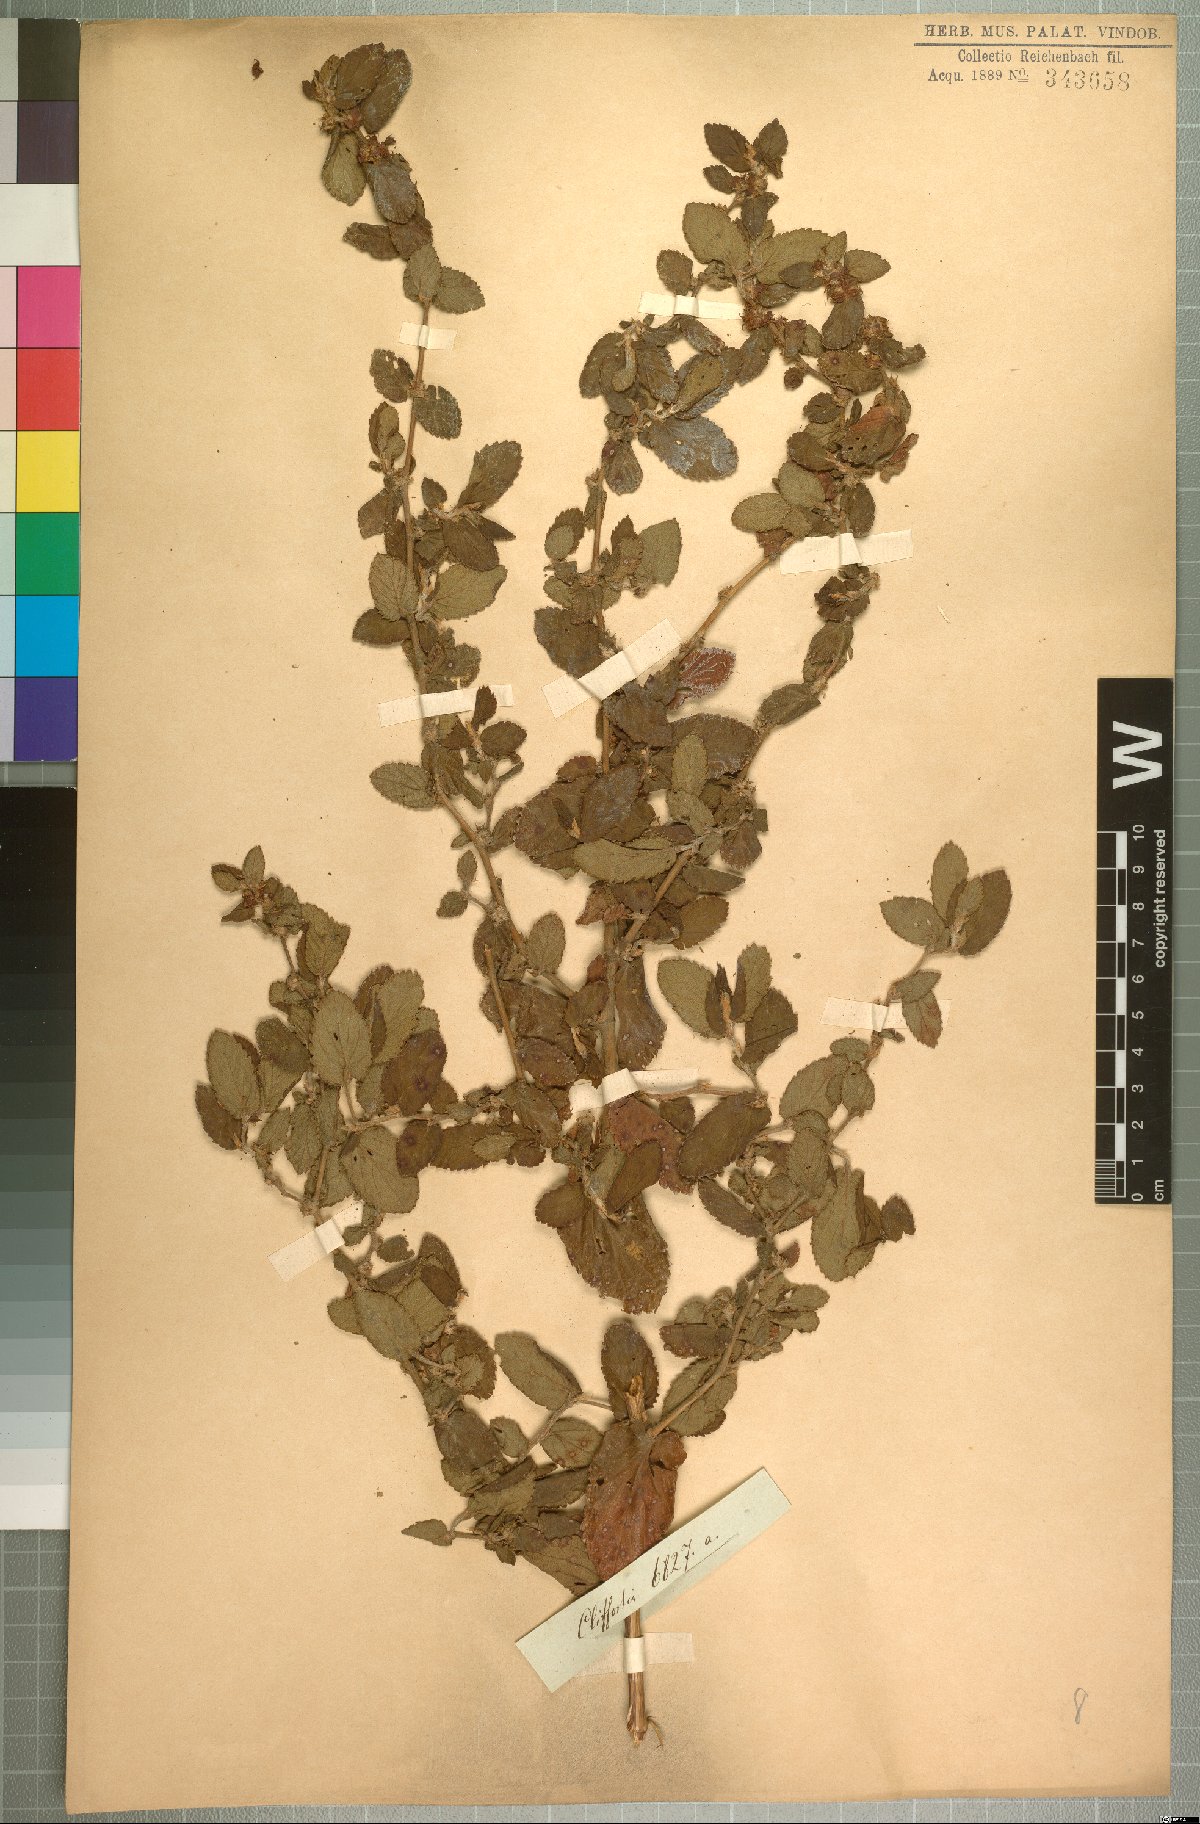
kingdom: Plantae
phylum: Tracheophyta
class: Magnoliopsida
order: Rosales
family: Rosaceae
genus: Cliffortia
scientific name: Cliffortia odorata
